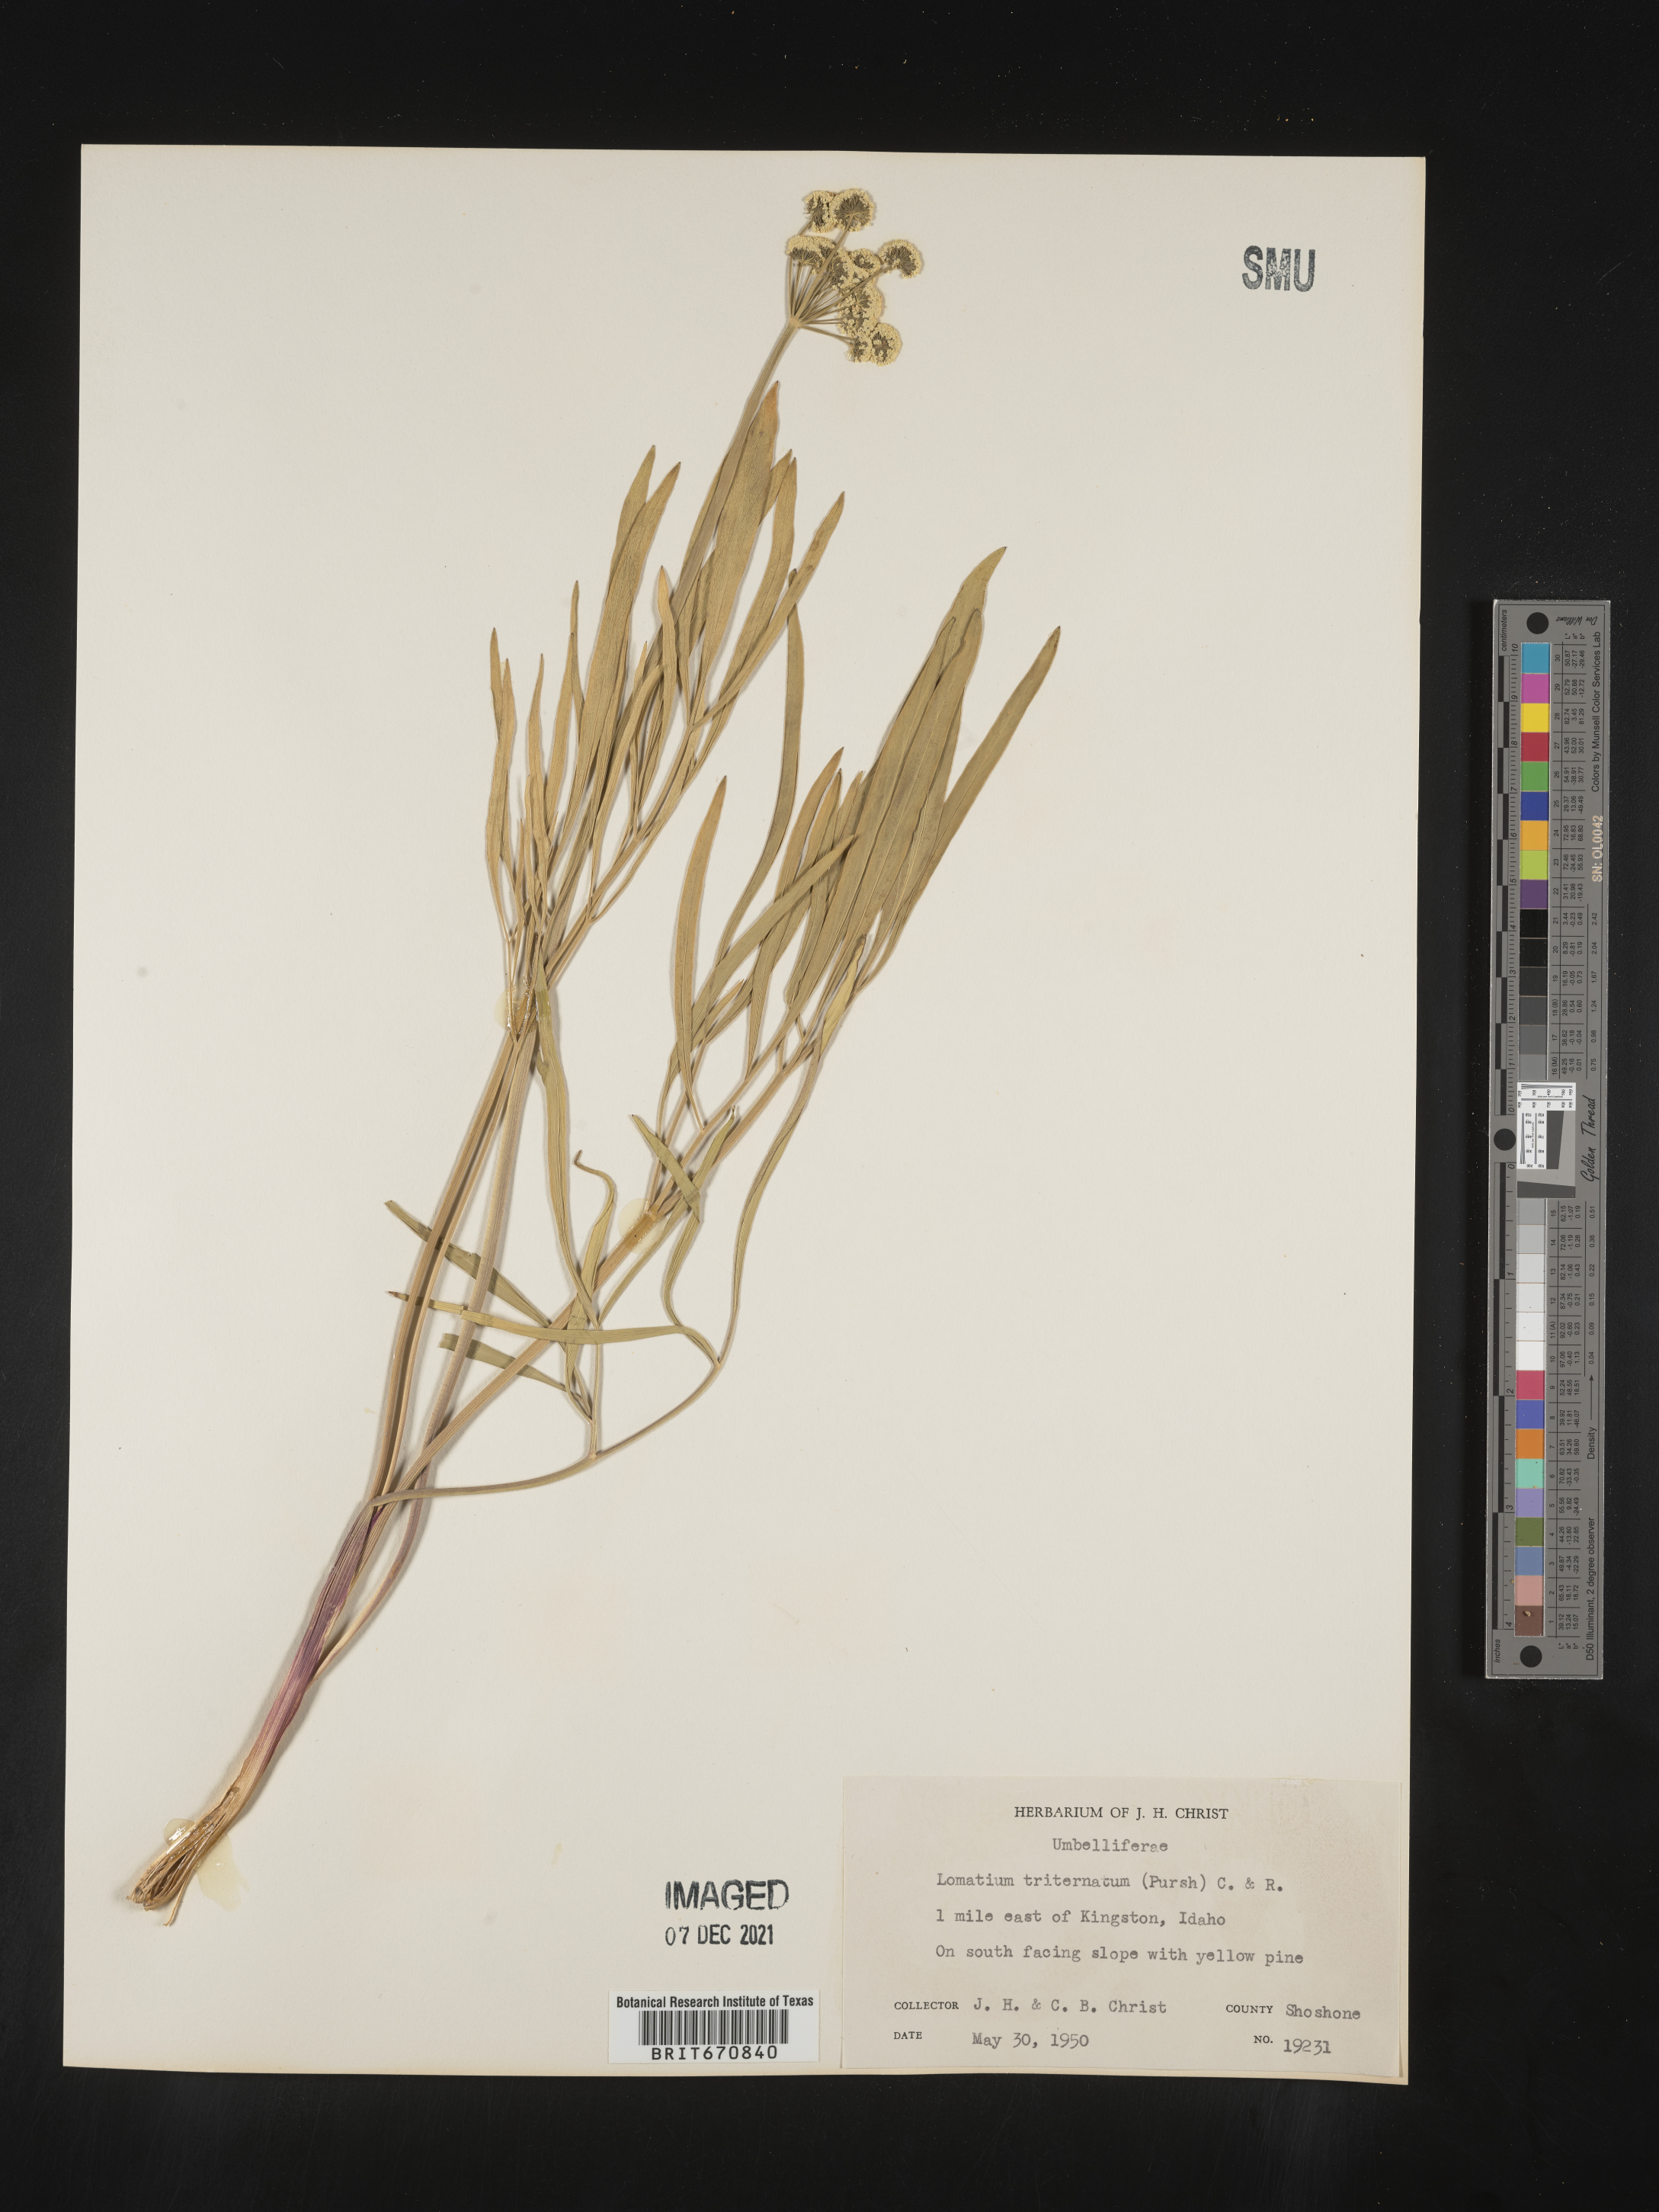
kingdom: Plantae
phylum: Tracheophyta
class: Magnoliopsida
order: Apiales
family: Apiaceae
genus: Lomatium
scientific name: Lomatium triternatum
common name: Ternate lomatium
